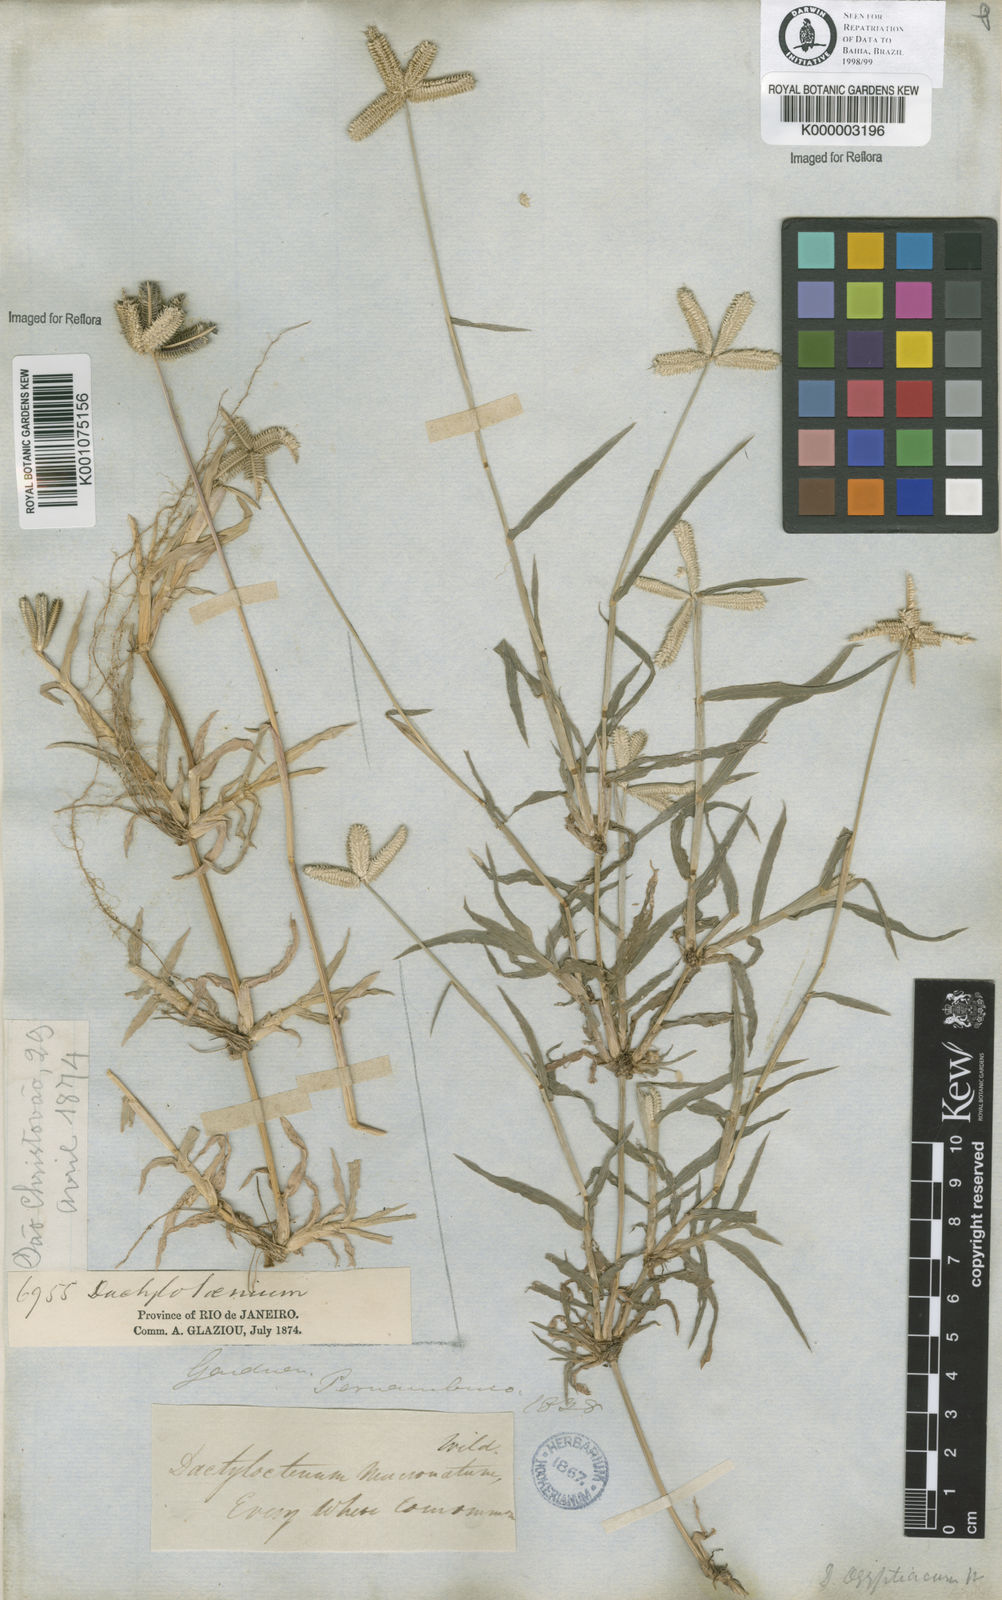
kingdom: Plantae
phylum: Tracheophyta
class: Liliopsida
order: Poales
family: Poaceae
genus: Dactyloctenium
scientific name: Dactyloctenium aegyptium
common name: Egyptian grass
